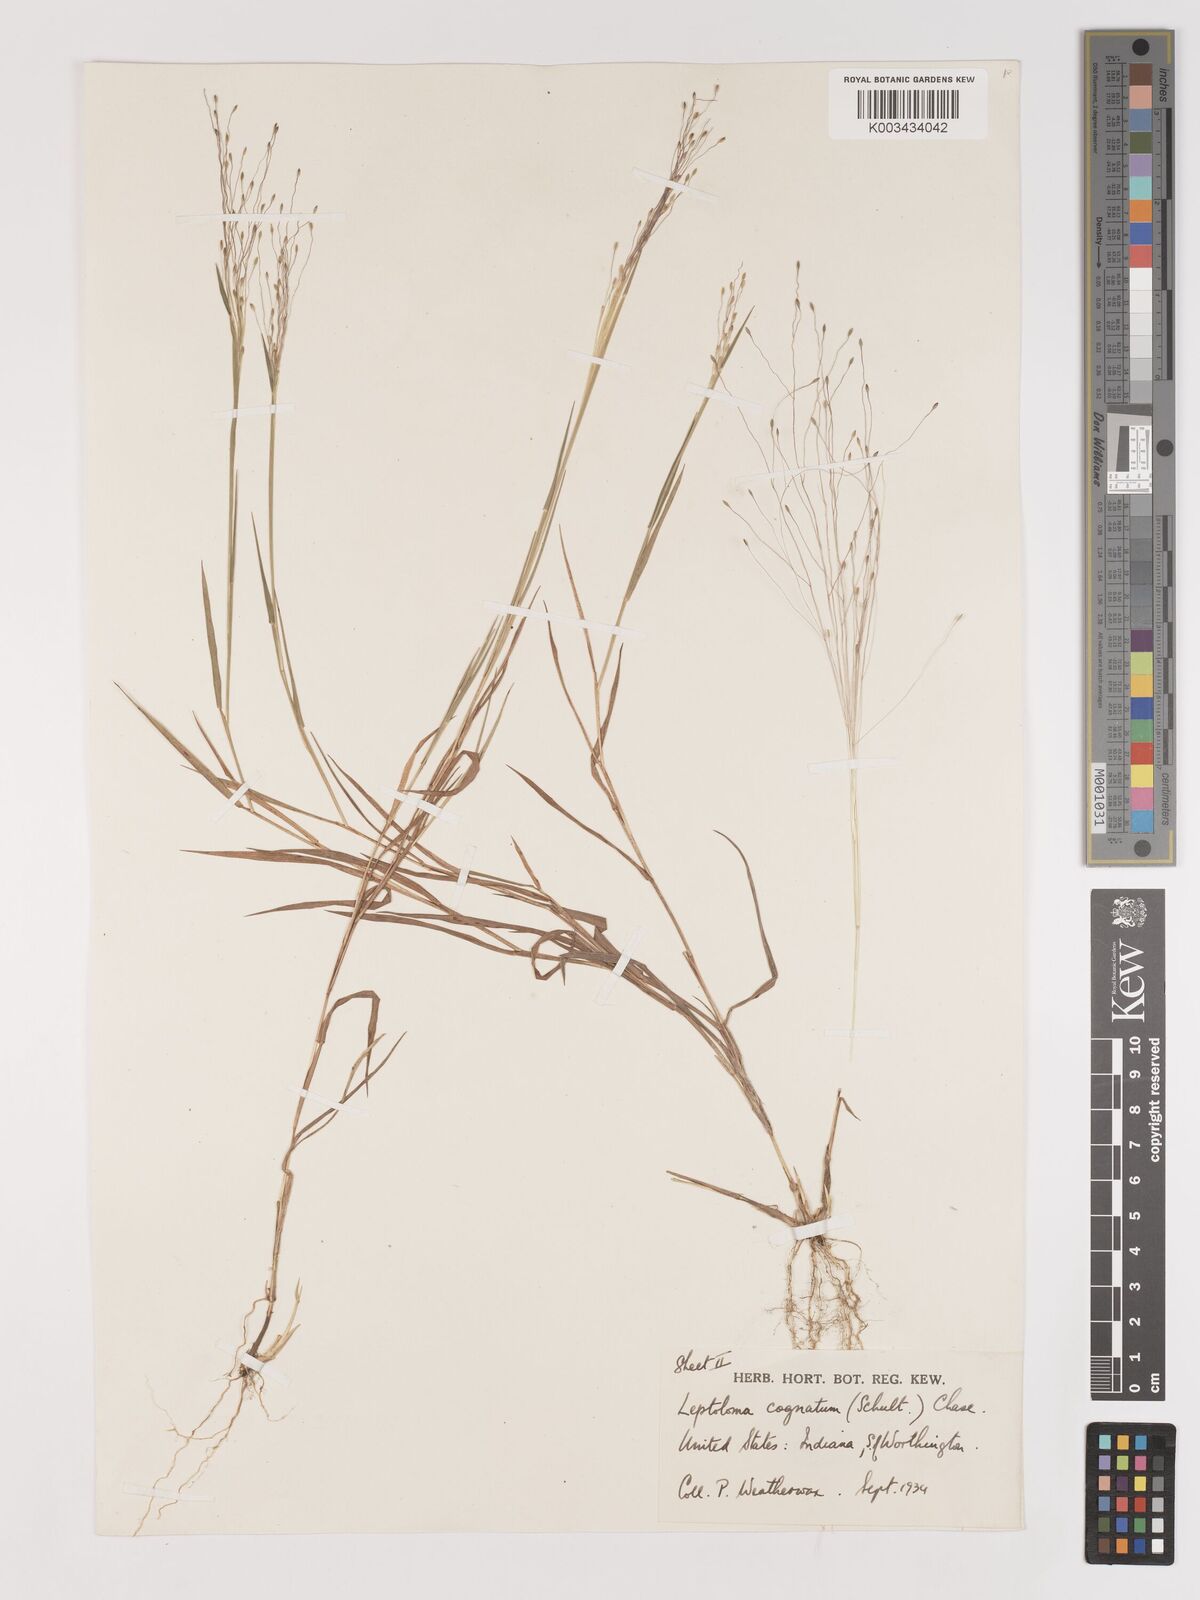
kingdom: Plantae
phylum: Tracheophyta
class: Liliopsida
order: Poales
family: Poaceae
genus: Digitaria
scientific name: Digitaria cognata
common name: Fall witchgrass
